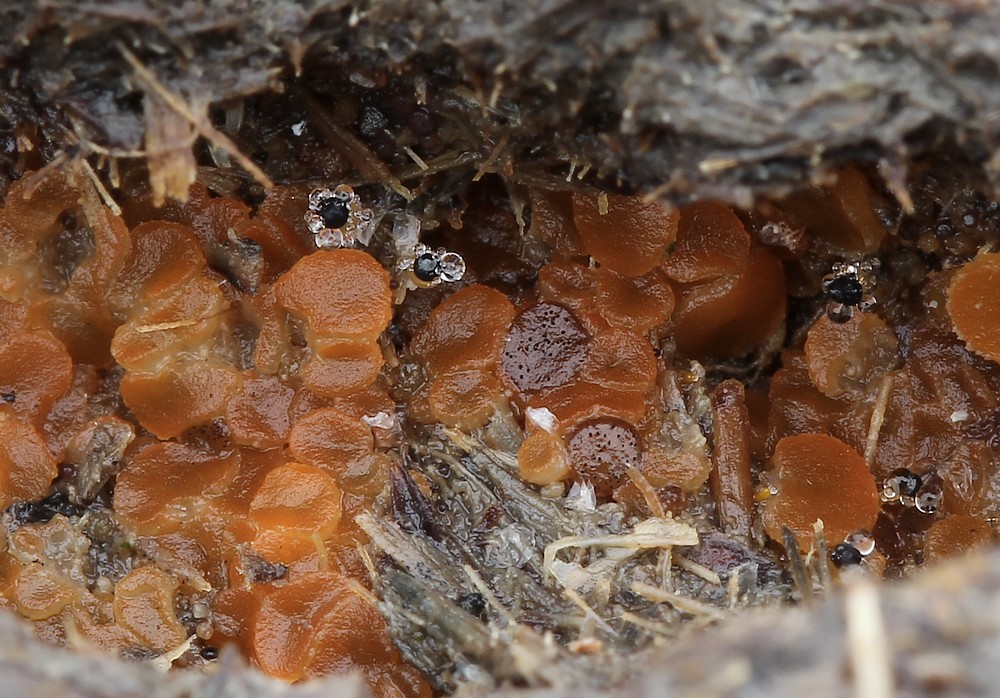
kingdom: Fungi
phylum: Mucoromycota
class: Mucoromycetes
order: Mucorales
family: Pilobolaceae
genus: Pilobolus
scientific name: Pilobolus
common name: boldkaster
